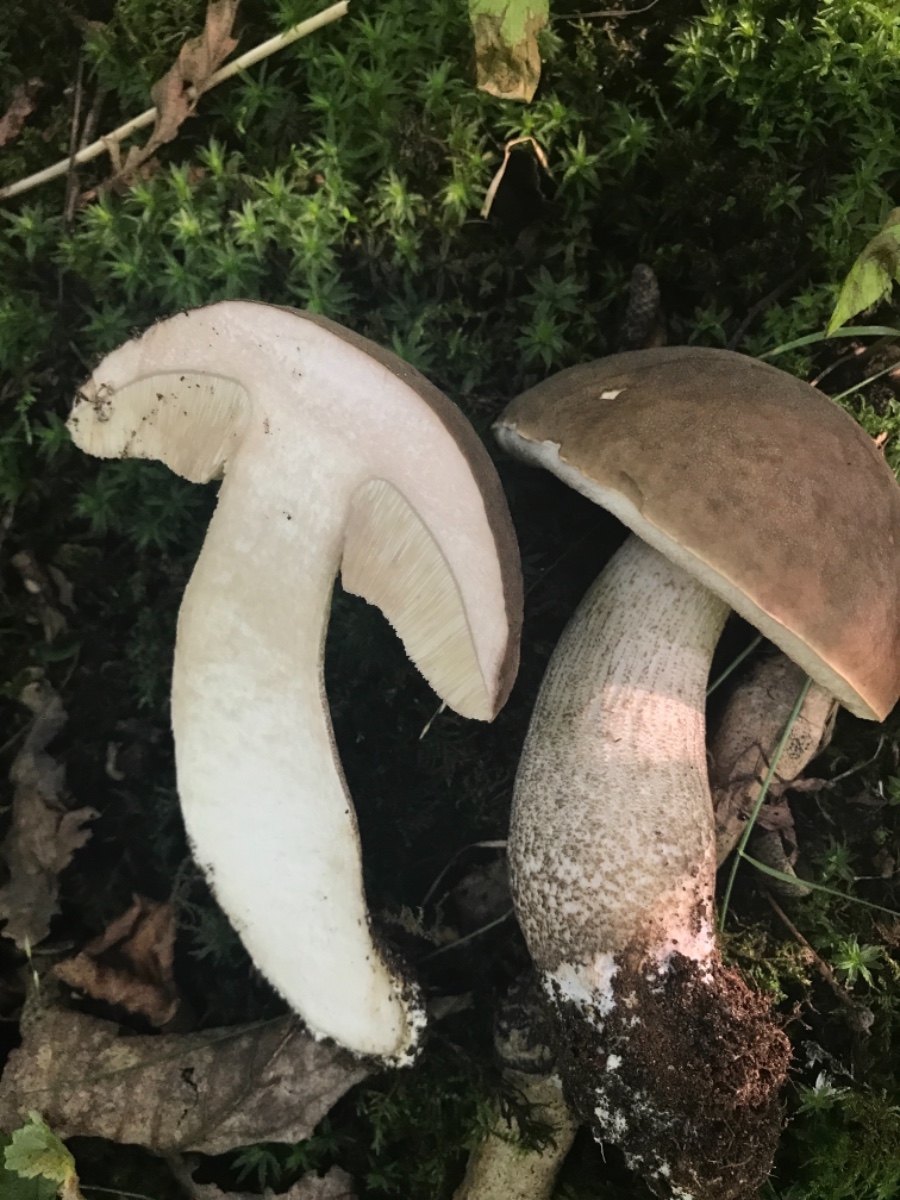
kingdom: Fungi
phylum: Basidiomycota
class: Agaricomycetes
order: Boletales
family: Boletaceae
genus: Leccinum
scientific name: Leccinum scabrum
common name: brun skælrørhat
